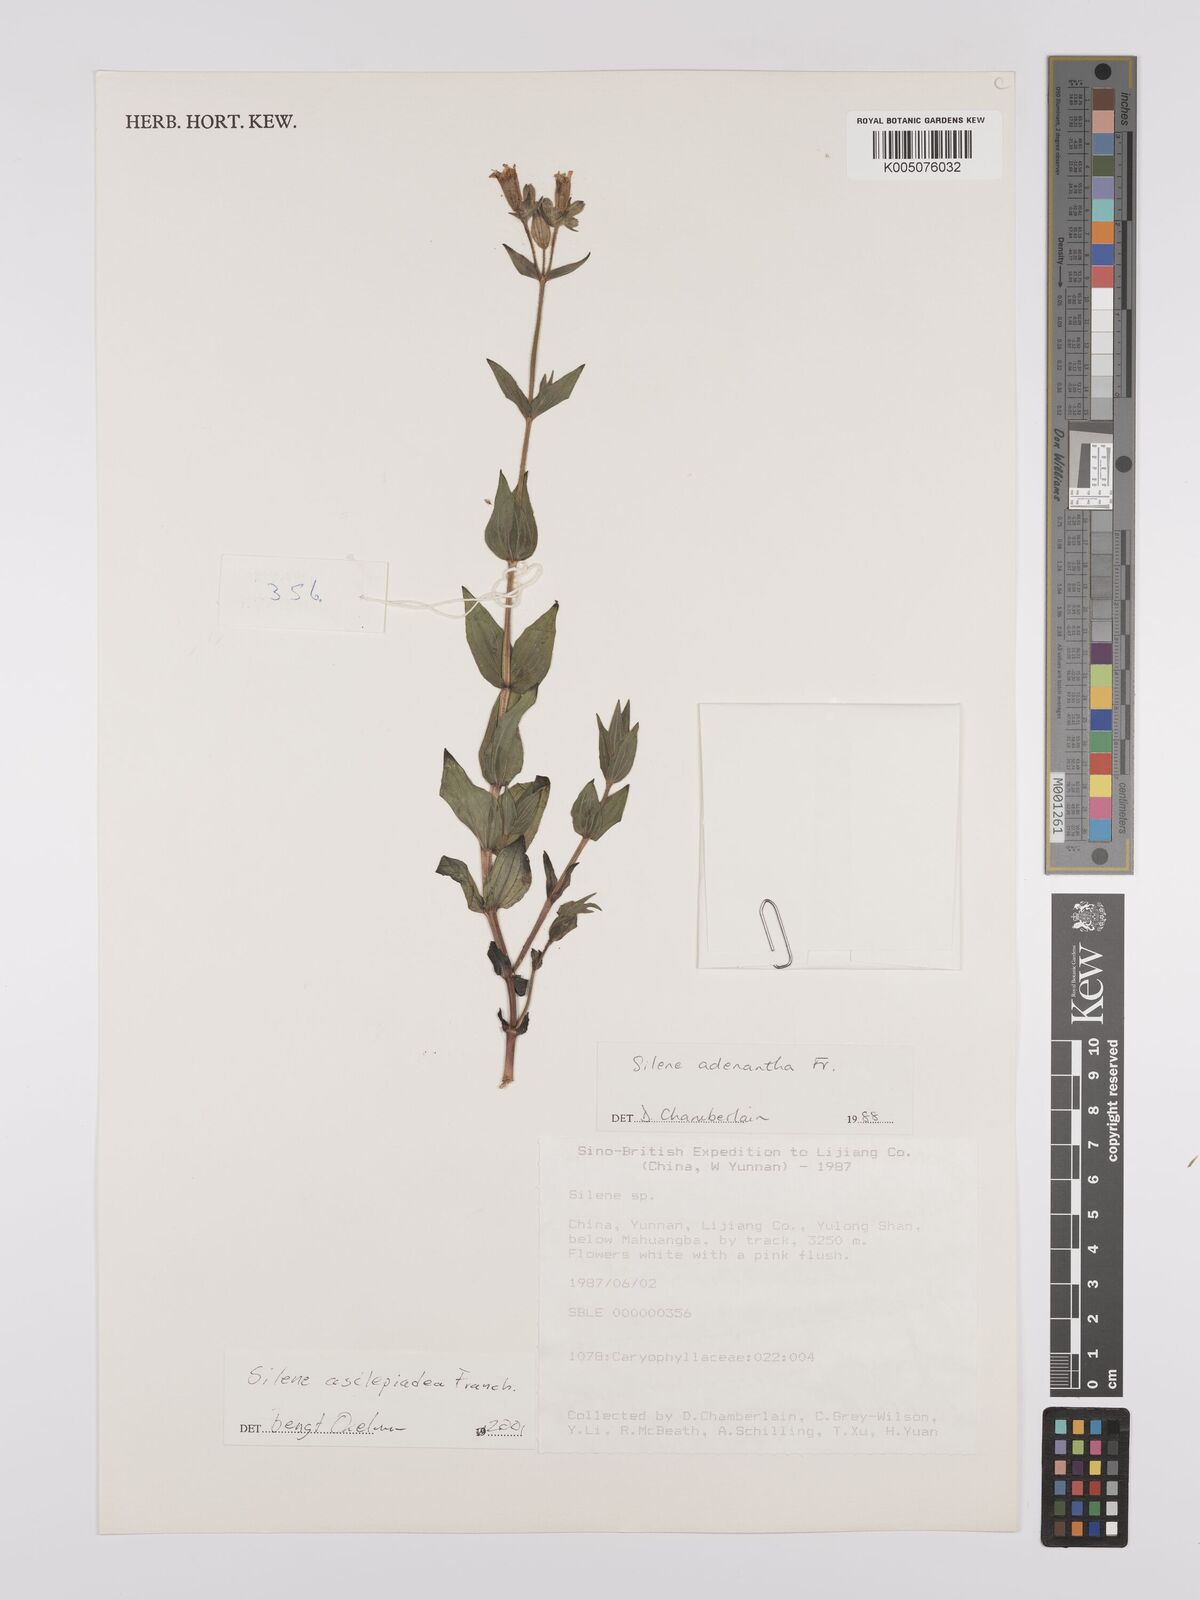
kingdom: Plantae
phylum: Tracheophyta
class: Magnoliopsida
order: Caryophyllales
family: Caryophyllaceae
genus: Silene
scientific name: Silene asclepiadea
